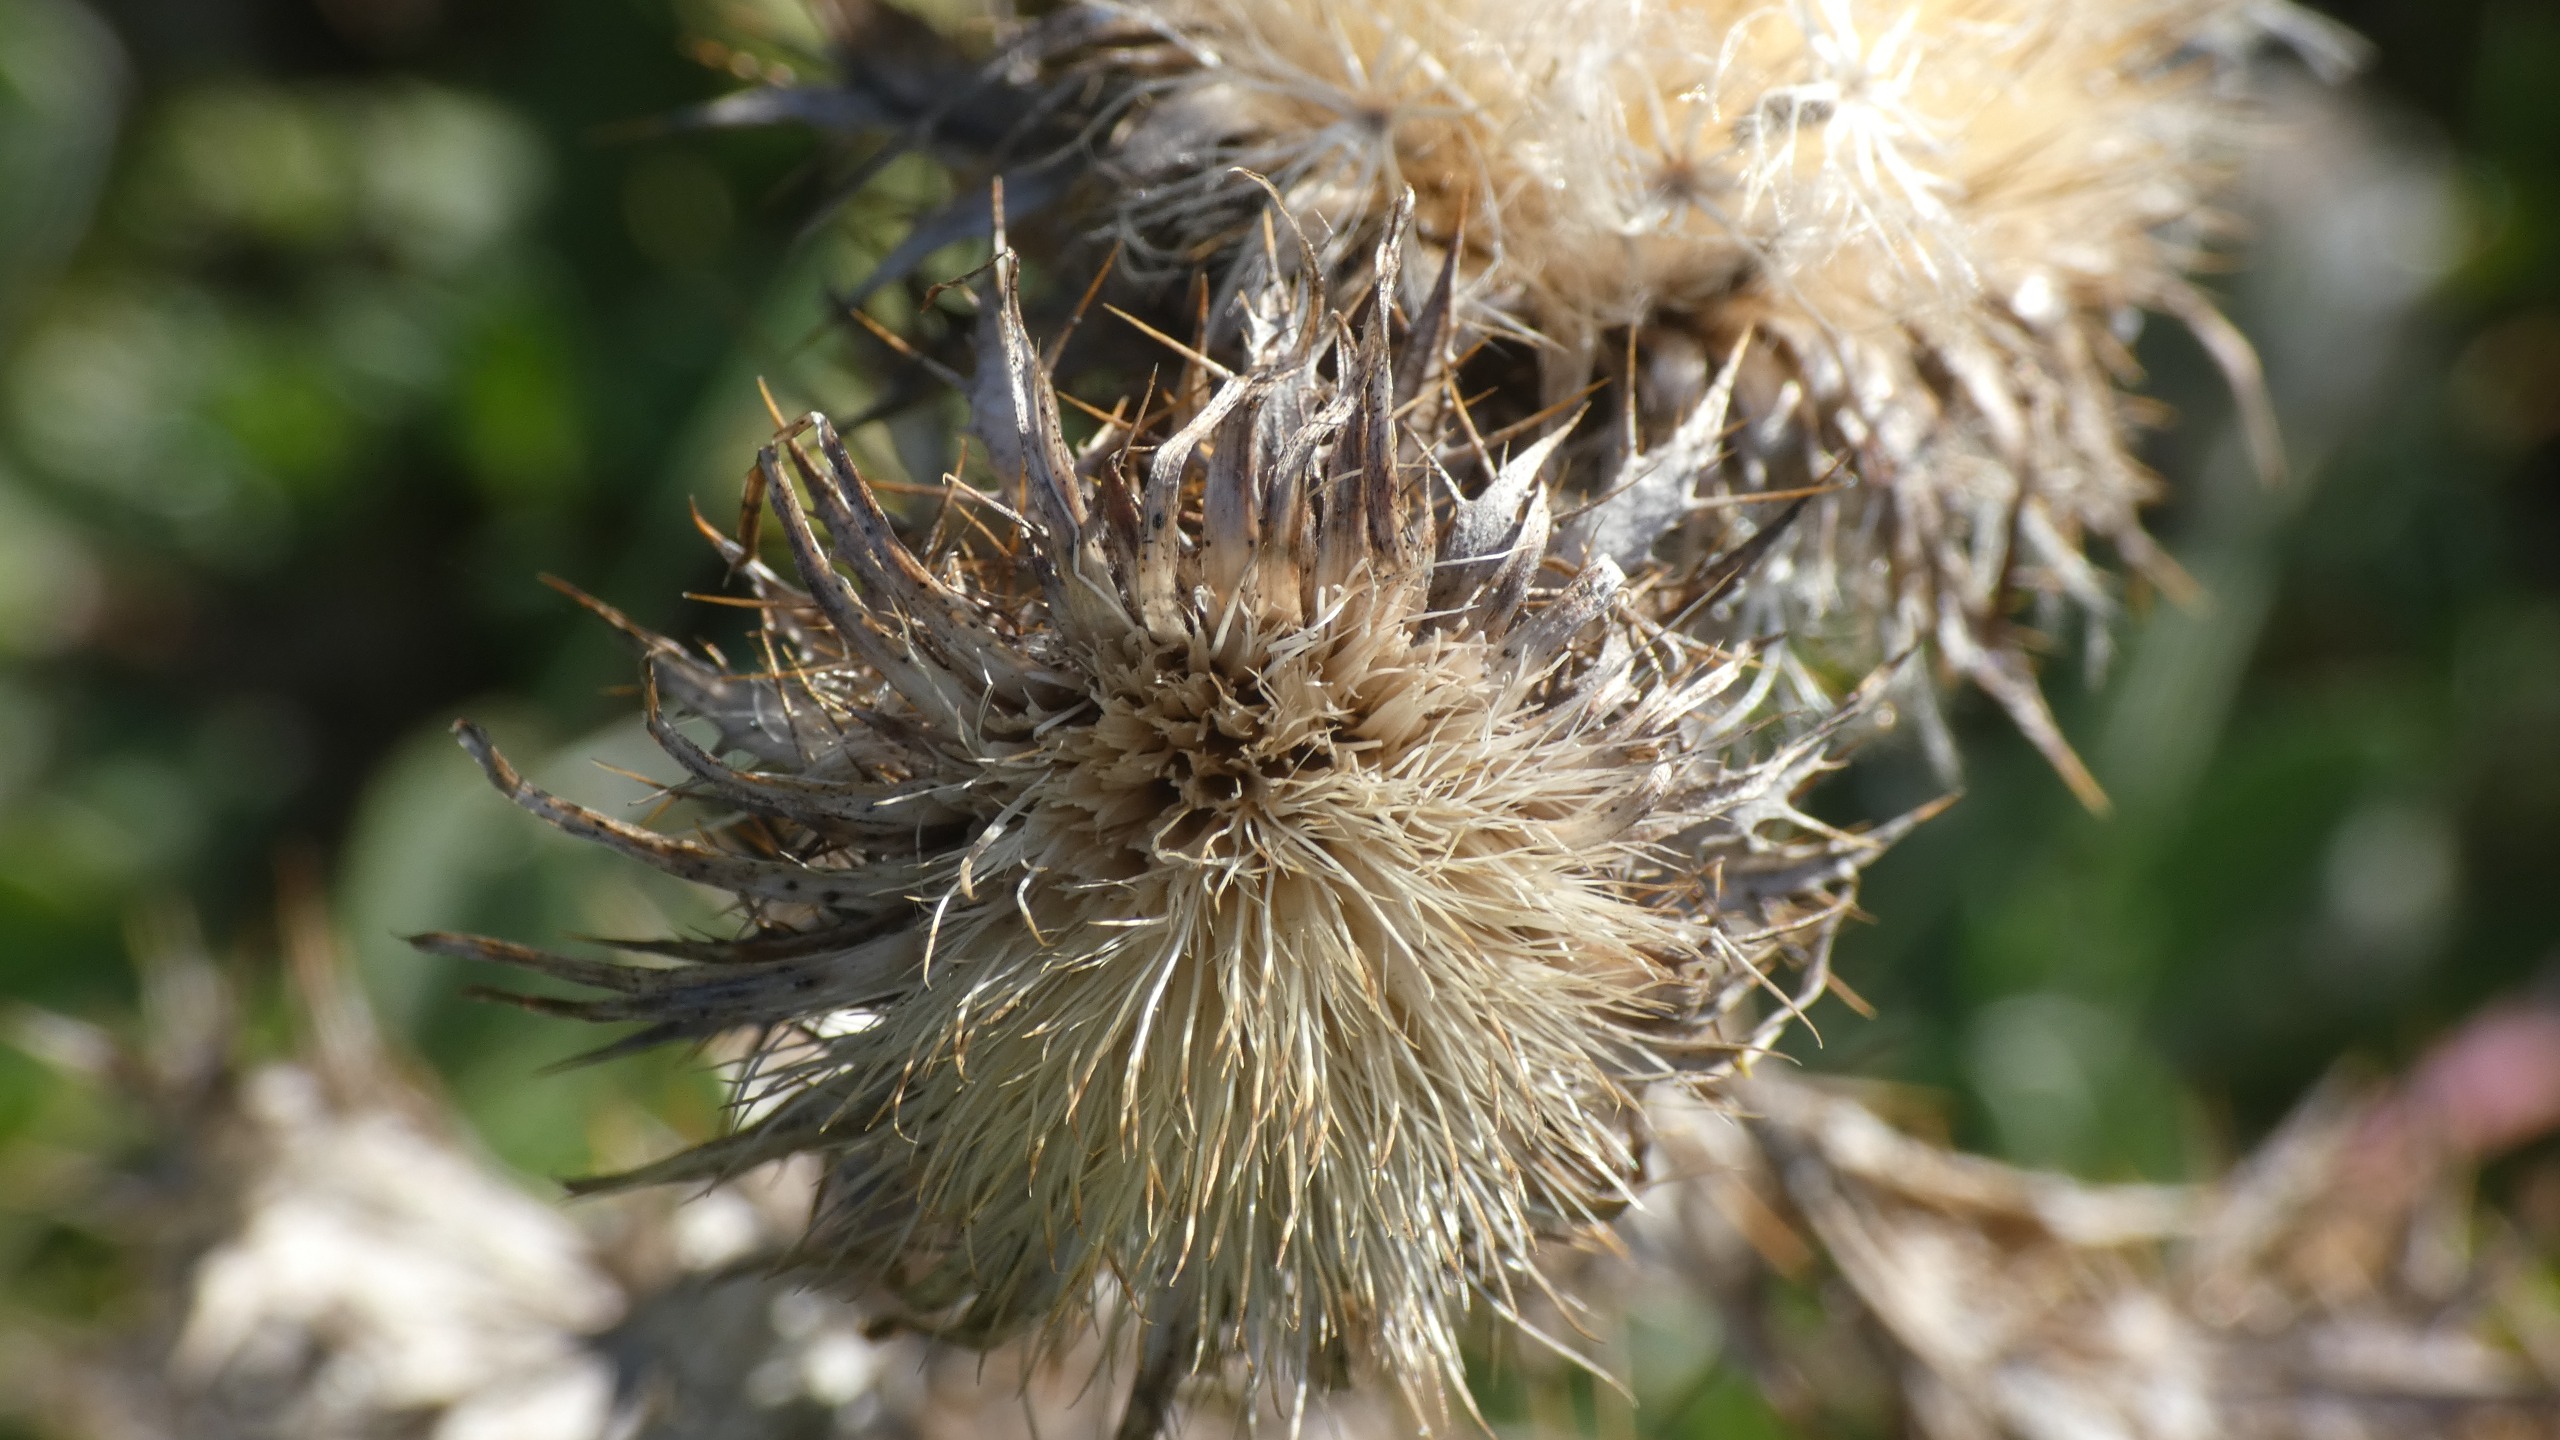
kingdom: Plantae
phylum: Tracheophyta
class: Magnoliopsida
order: Asterales
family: Asteraceae
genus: Carlina
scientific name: Carlina vulgaris
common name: Bakketidsel
